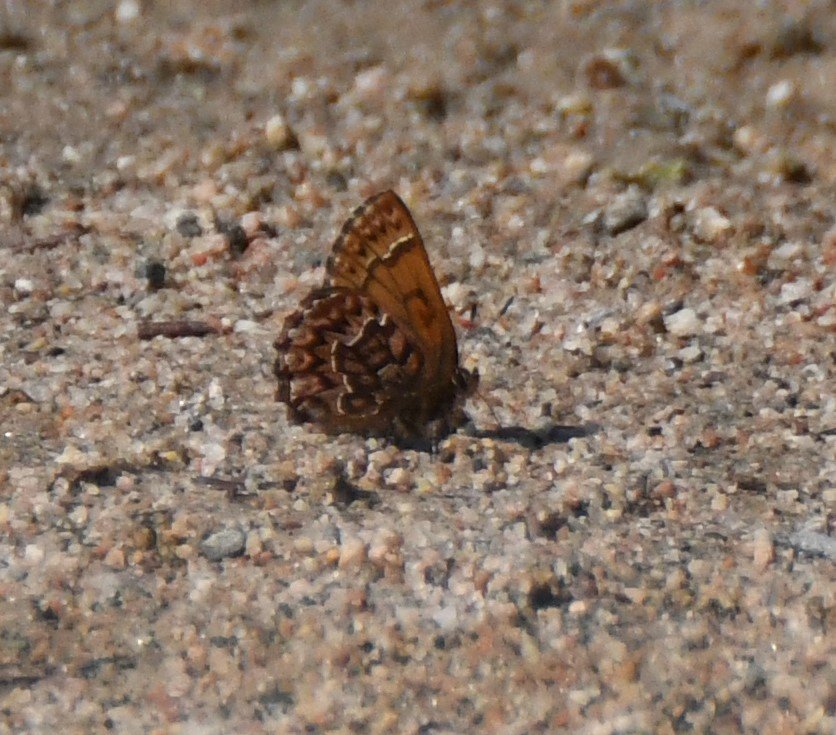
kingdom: Animalia
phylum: Arthropoda
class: Insecta
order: Lepidoptera
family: Lycaenidae
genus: Incisalia
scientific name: Incisalia eryphon
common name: Western Pine Elfin
